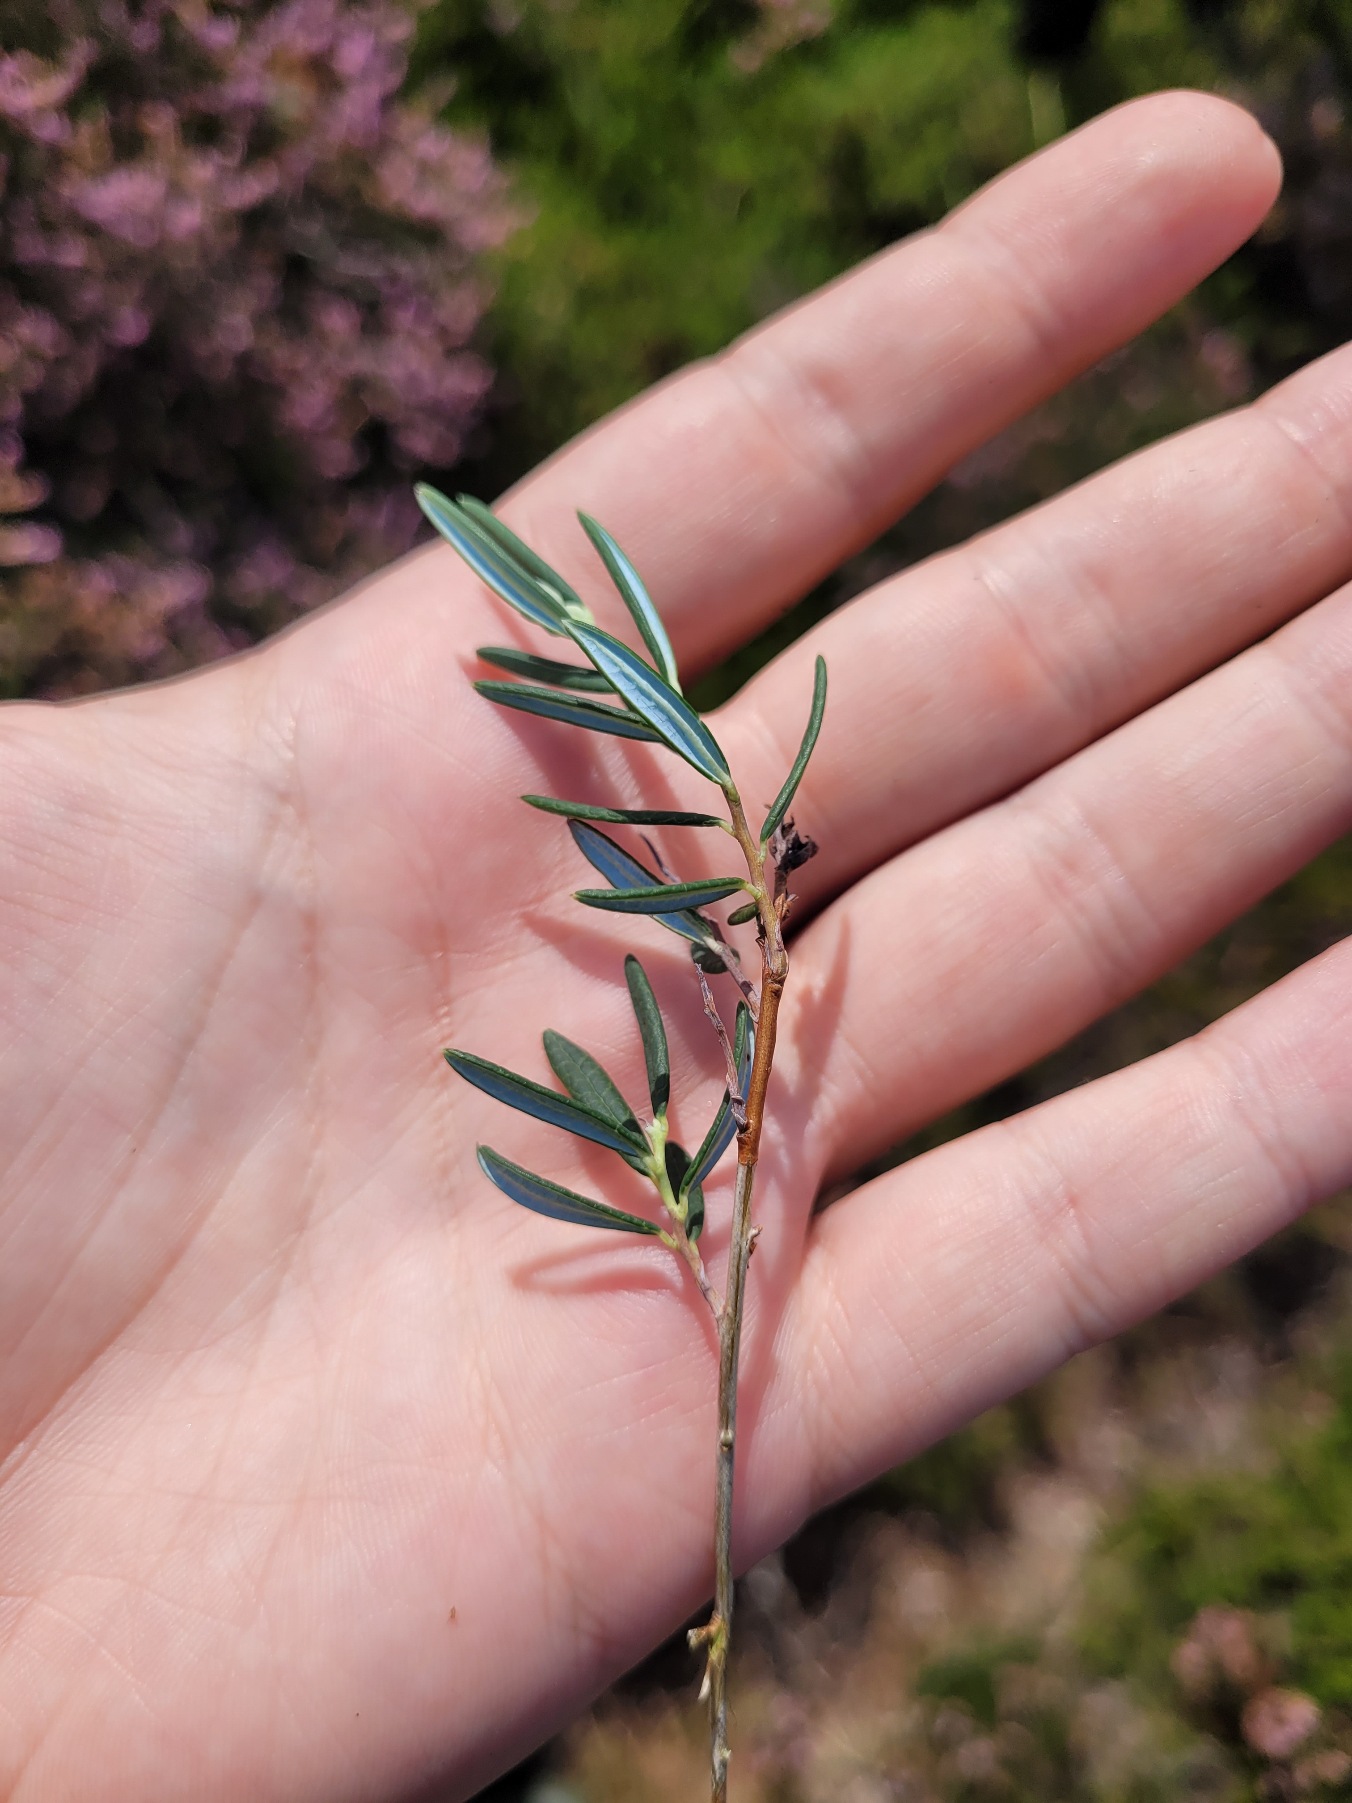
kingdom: Plantae
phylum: Tracheophyta
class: Magnoliopsida
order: Ericales
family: Ericaceae
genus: Andromeda
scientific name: Andromeda polifolia
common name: Rosmarinlyng
